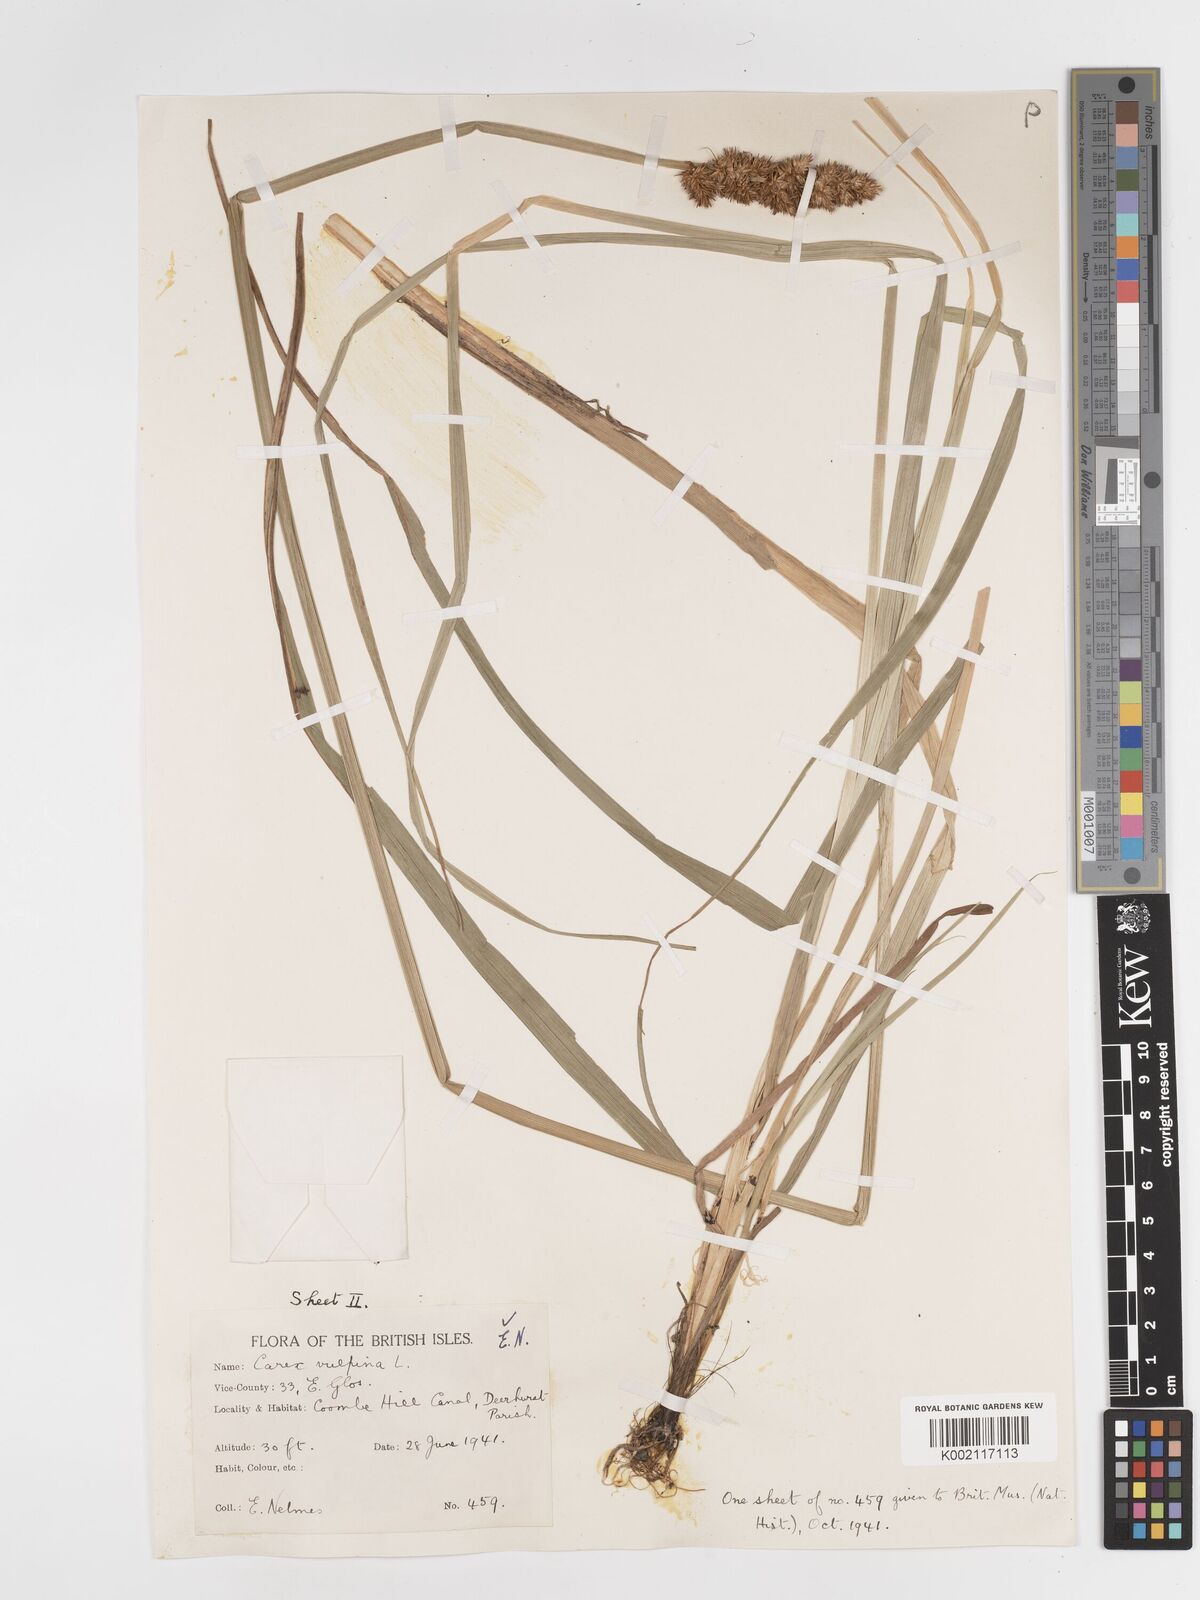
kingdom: Plantae
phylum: Tracheophyta
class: Liliopsida
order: Poales
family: Cyperaceae
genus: Carex
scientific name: Carex vulpina
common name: True fox-sedge
